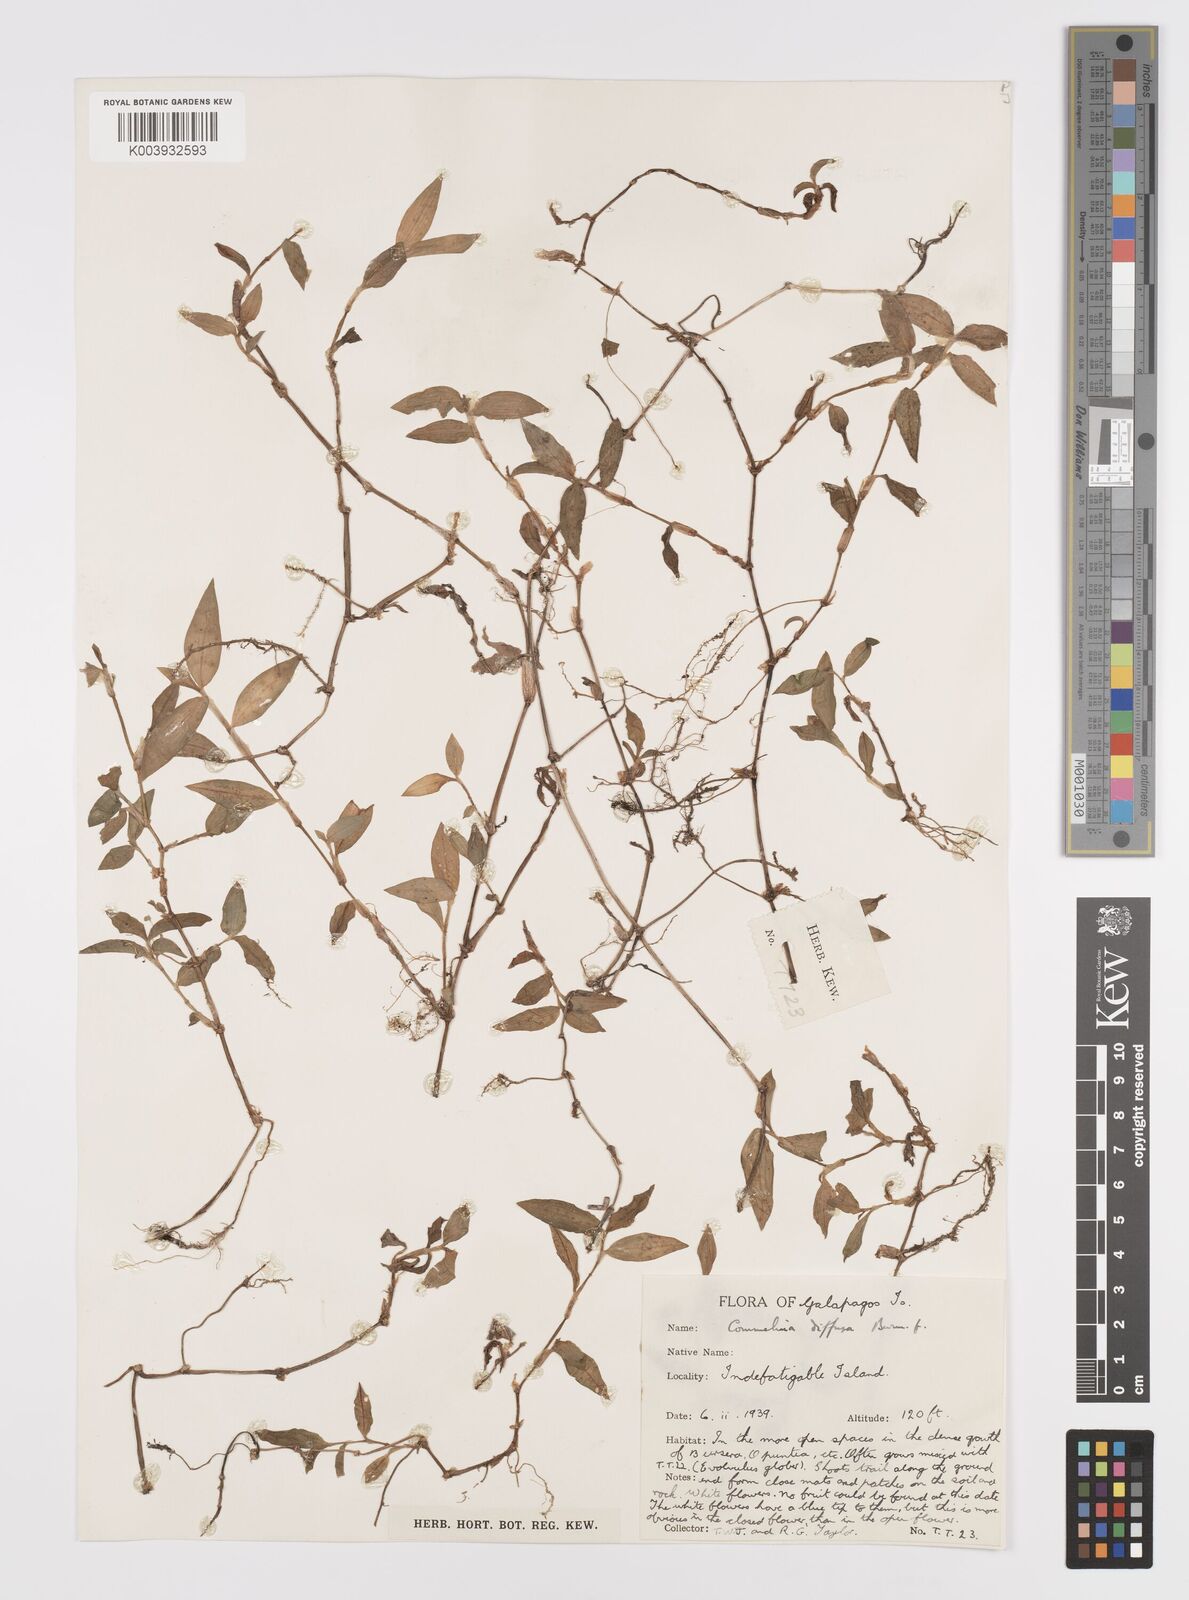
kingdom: Plantae
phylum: Tracheophyta
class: Liliopsida
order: Commelinales
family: Commelinaceae
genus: Commelina
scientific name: Commelina diffusa
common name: Climbing dayflower
